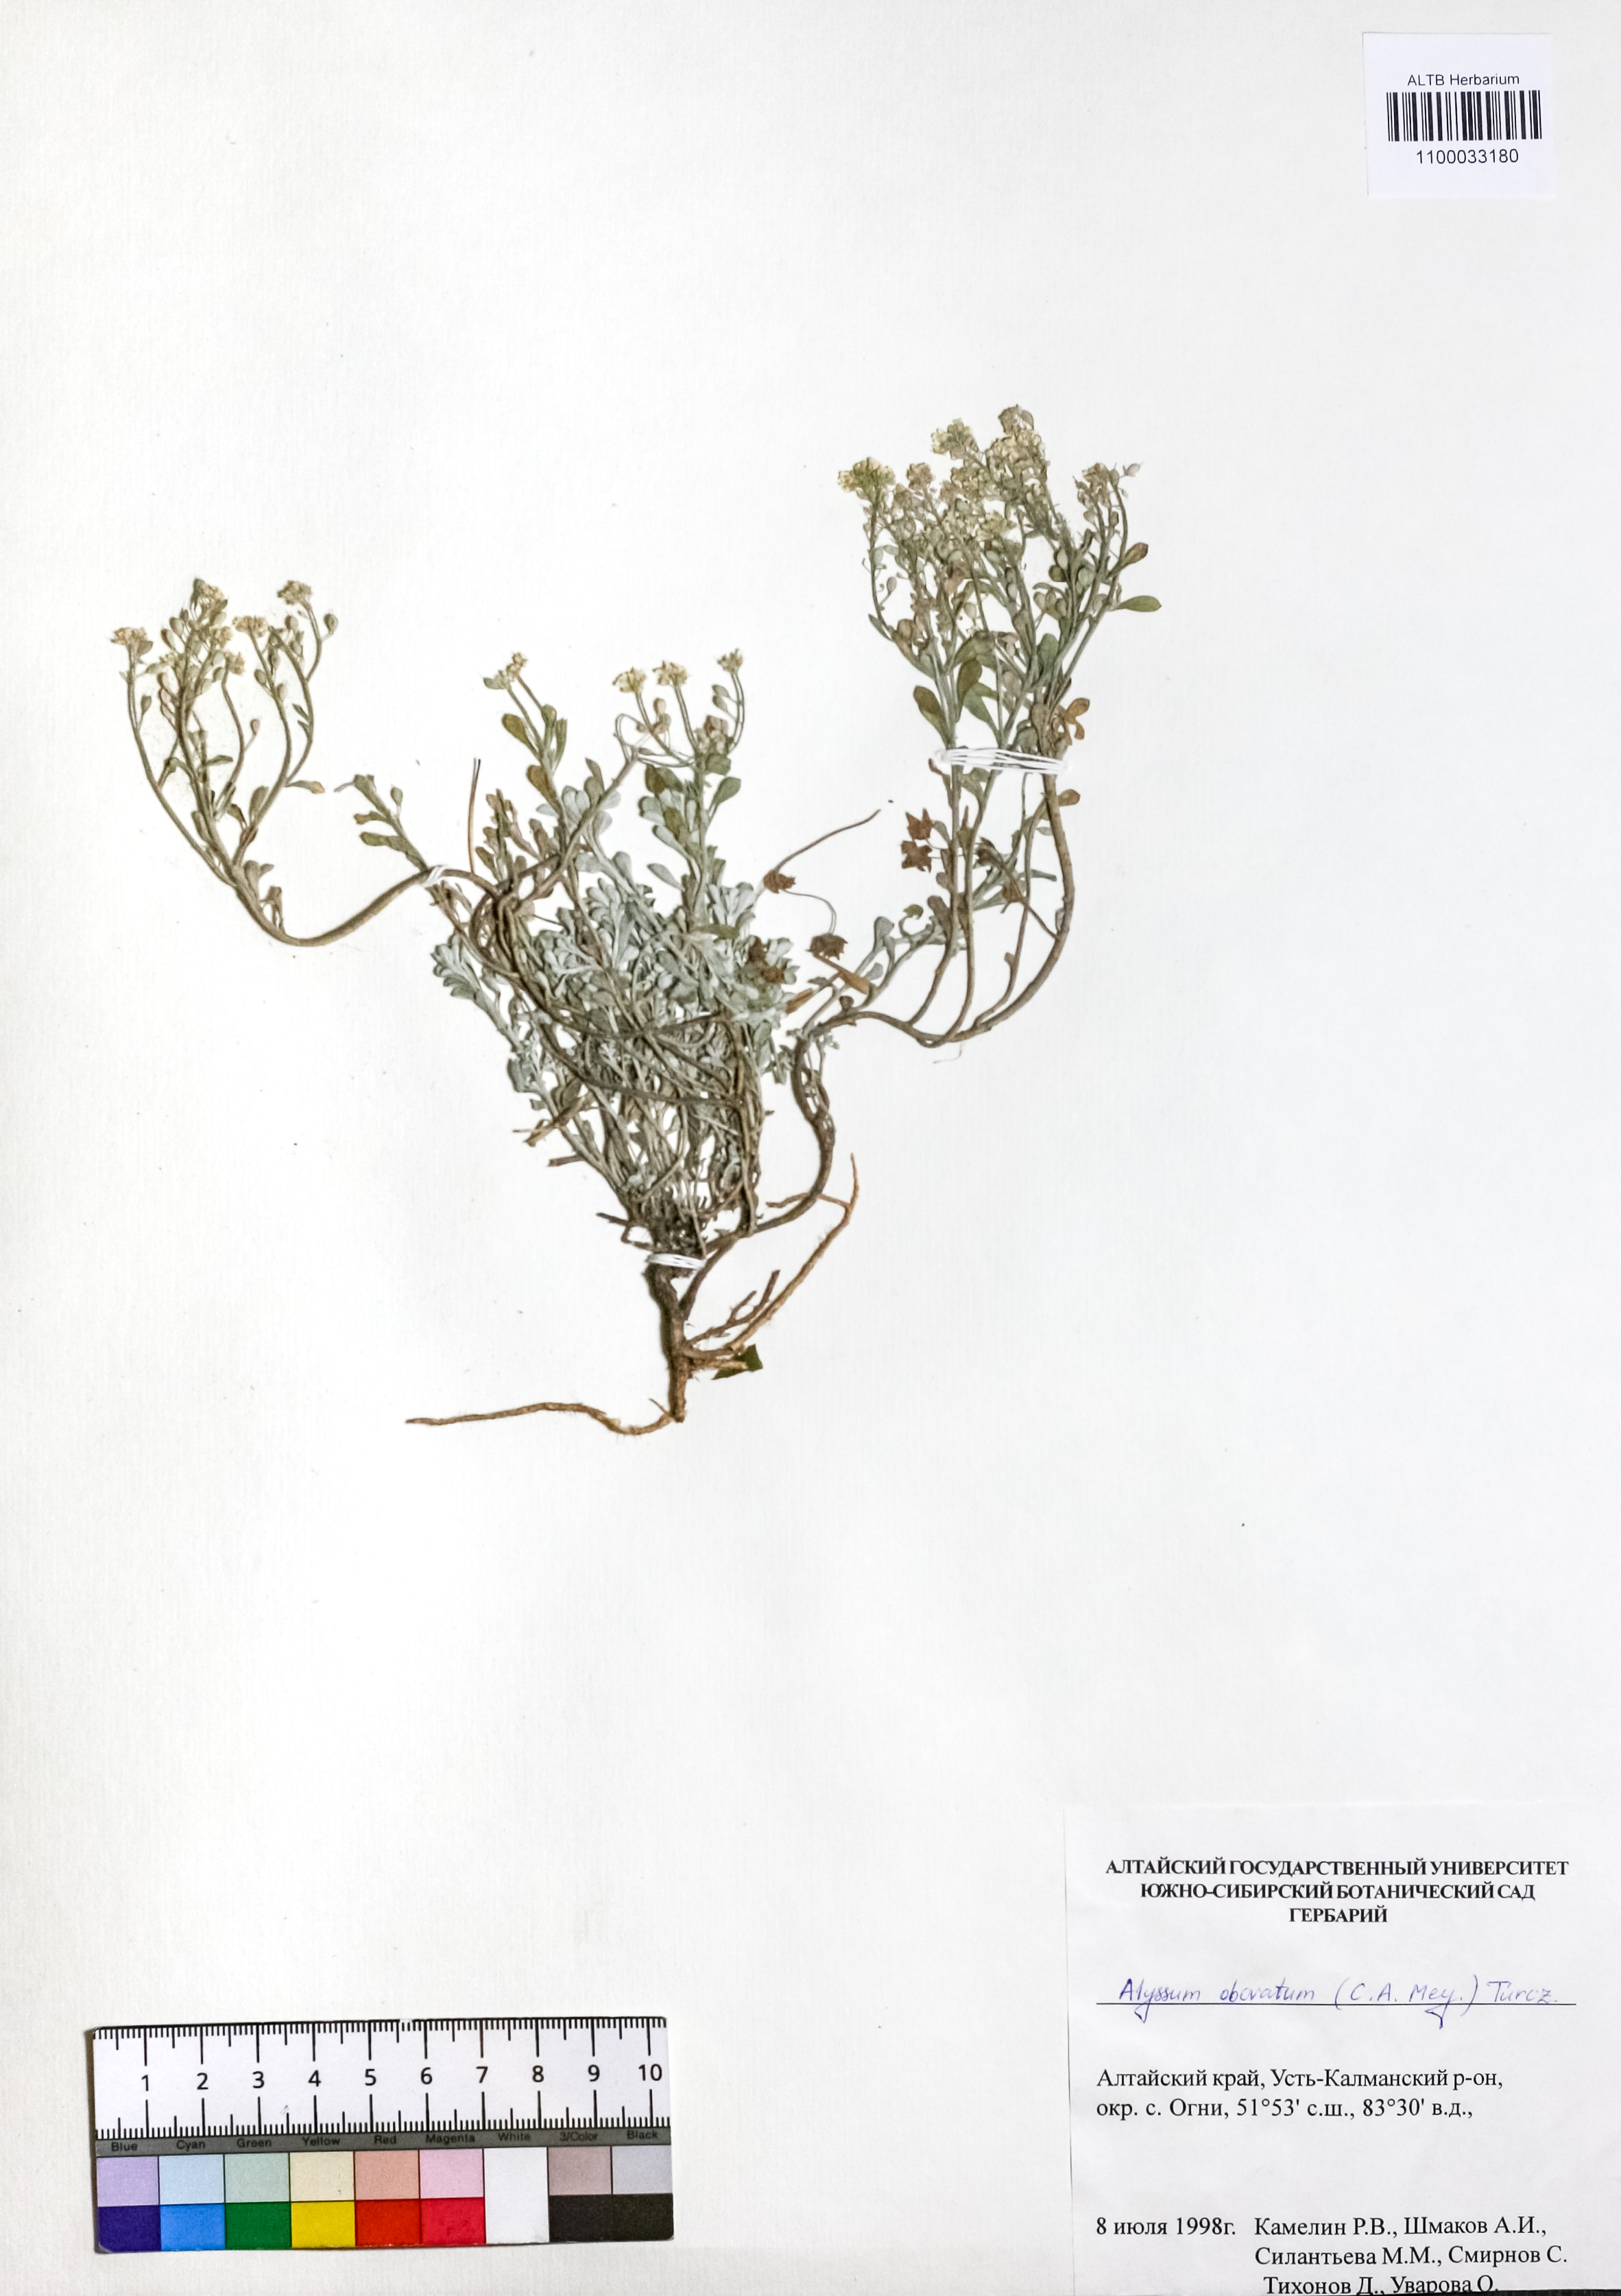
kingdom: Plantae
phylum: Tracheophyta
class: Magnoliopsida
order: Brassicales
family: Brassicaceae
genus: Odontarrhena
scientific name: Odontarrhena obovata
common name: American alyssum
